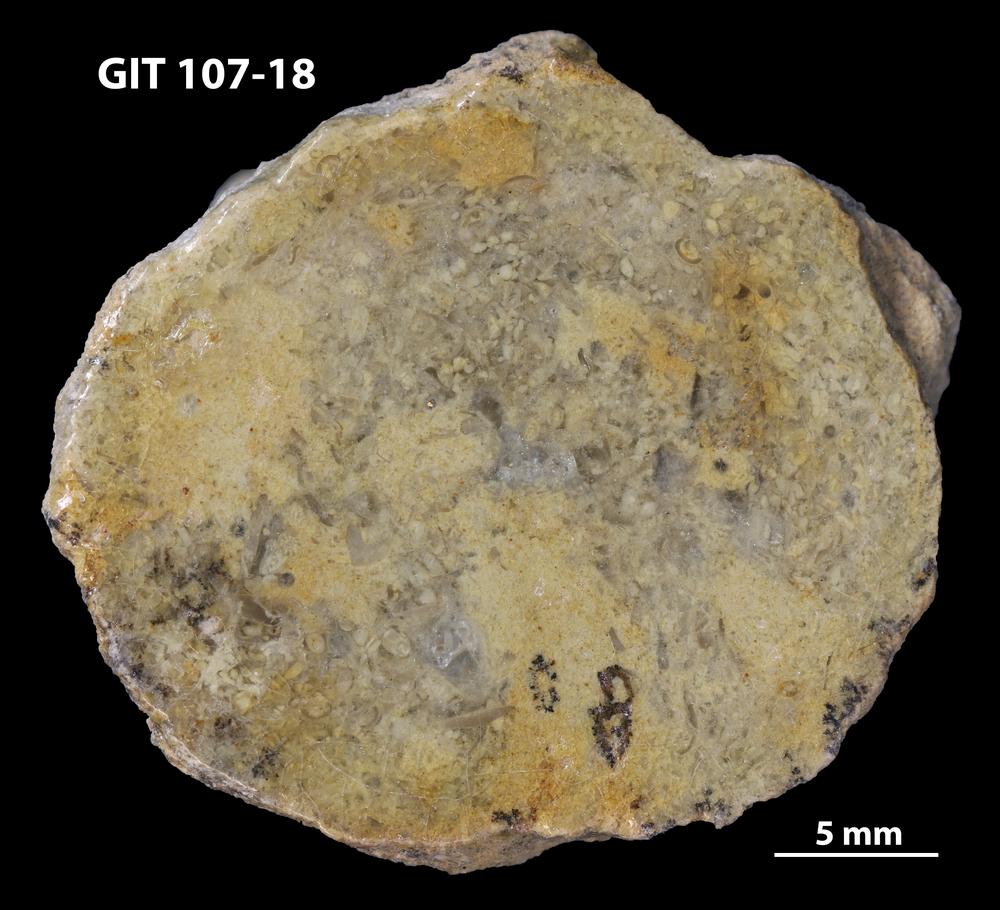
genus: Amphorichnus
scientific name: Amphorichnus
